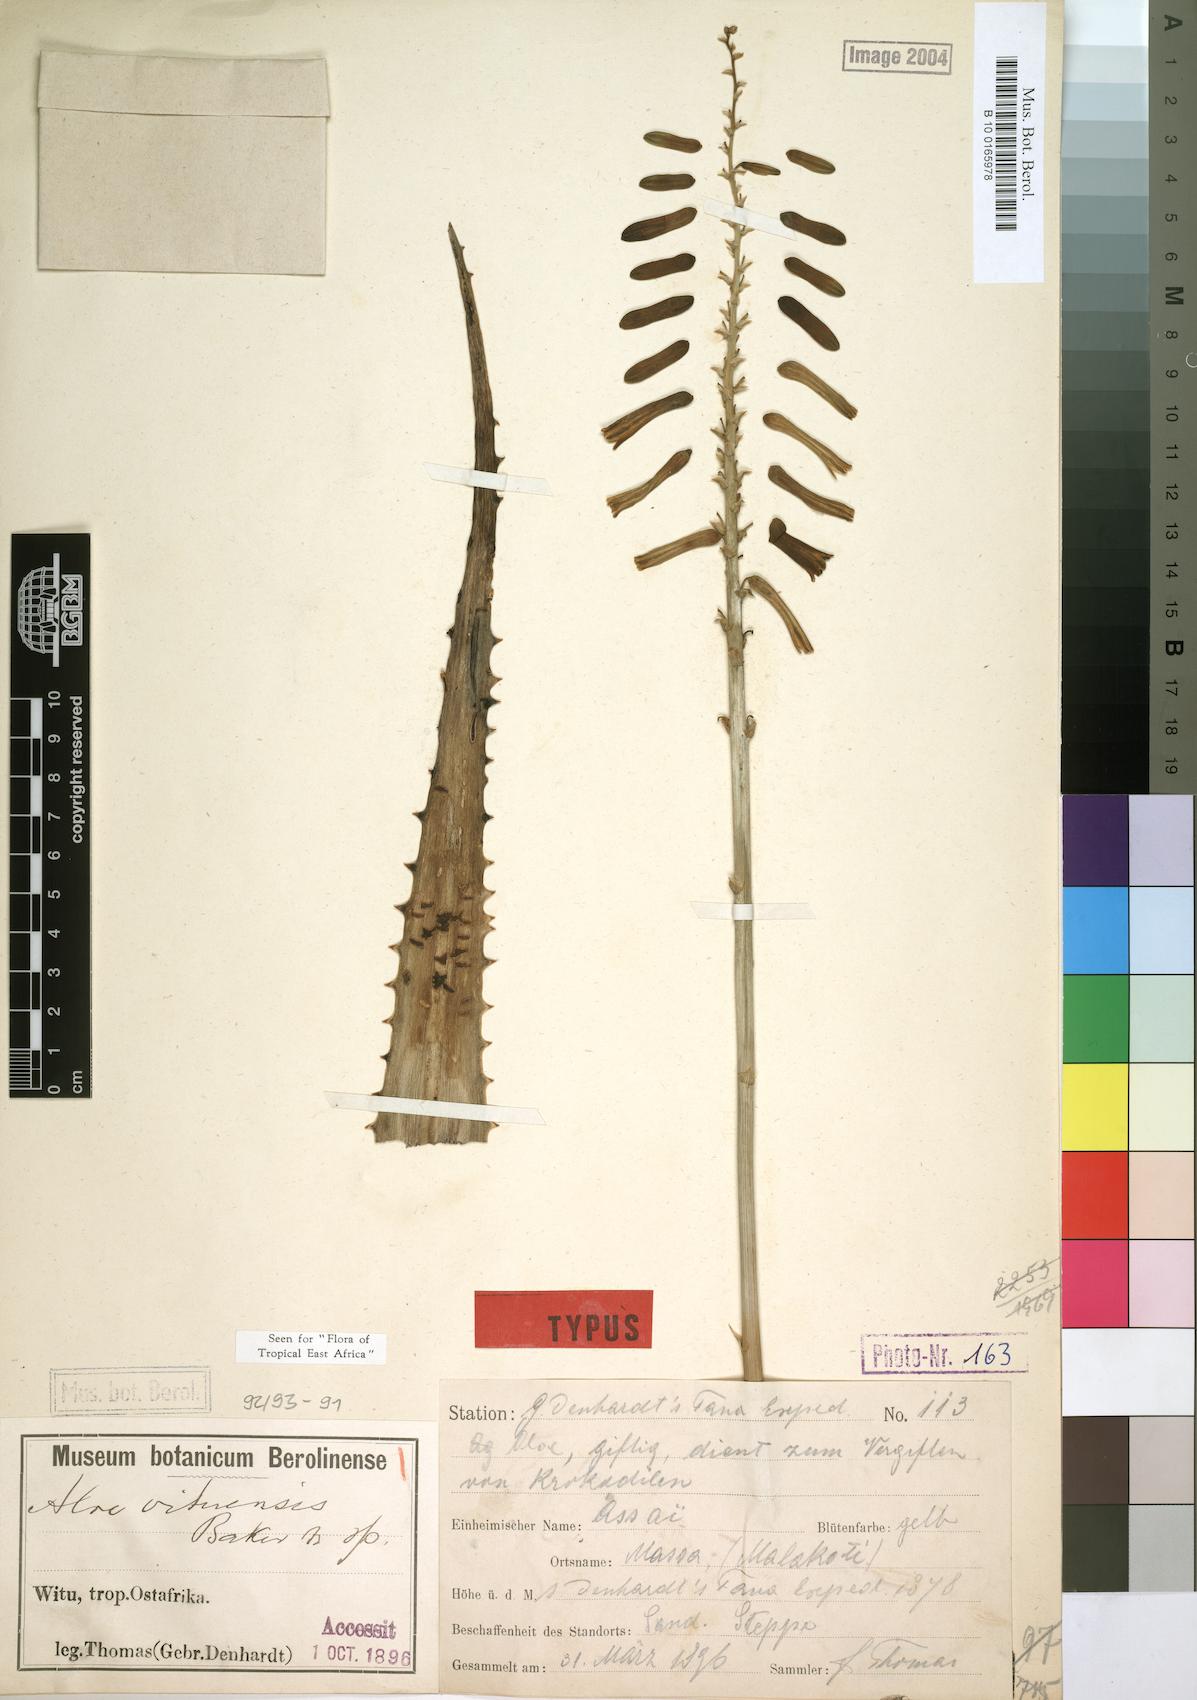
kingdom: Plantae
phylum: Tracheophyta
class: Liliopsida
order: Asparagales
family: Asphodelaceae
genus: Aloe
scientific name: Aloe vituensis
